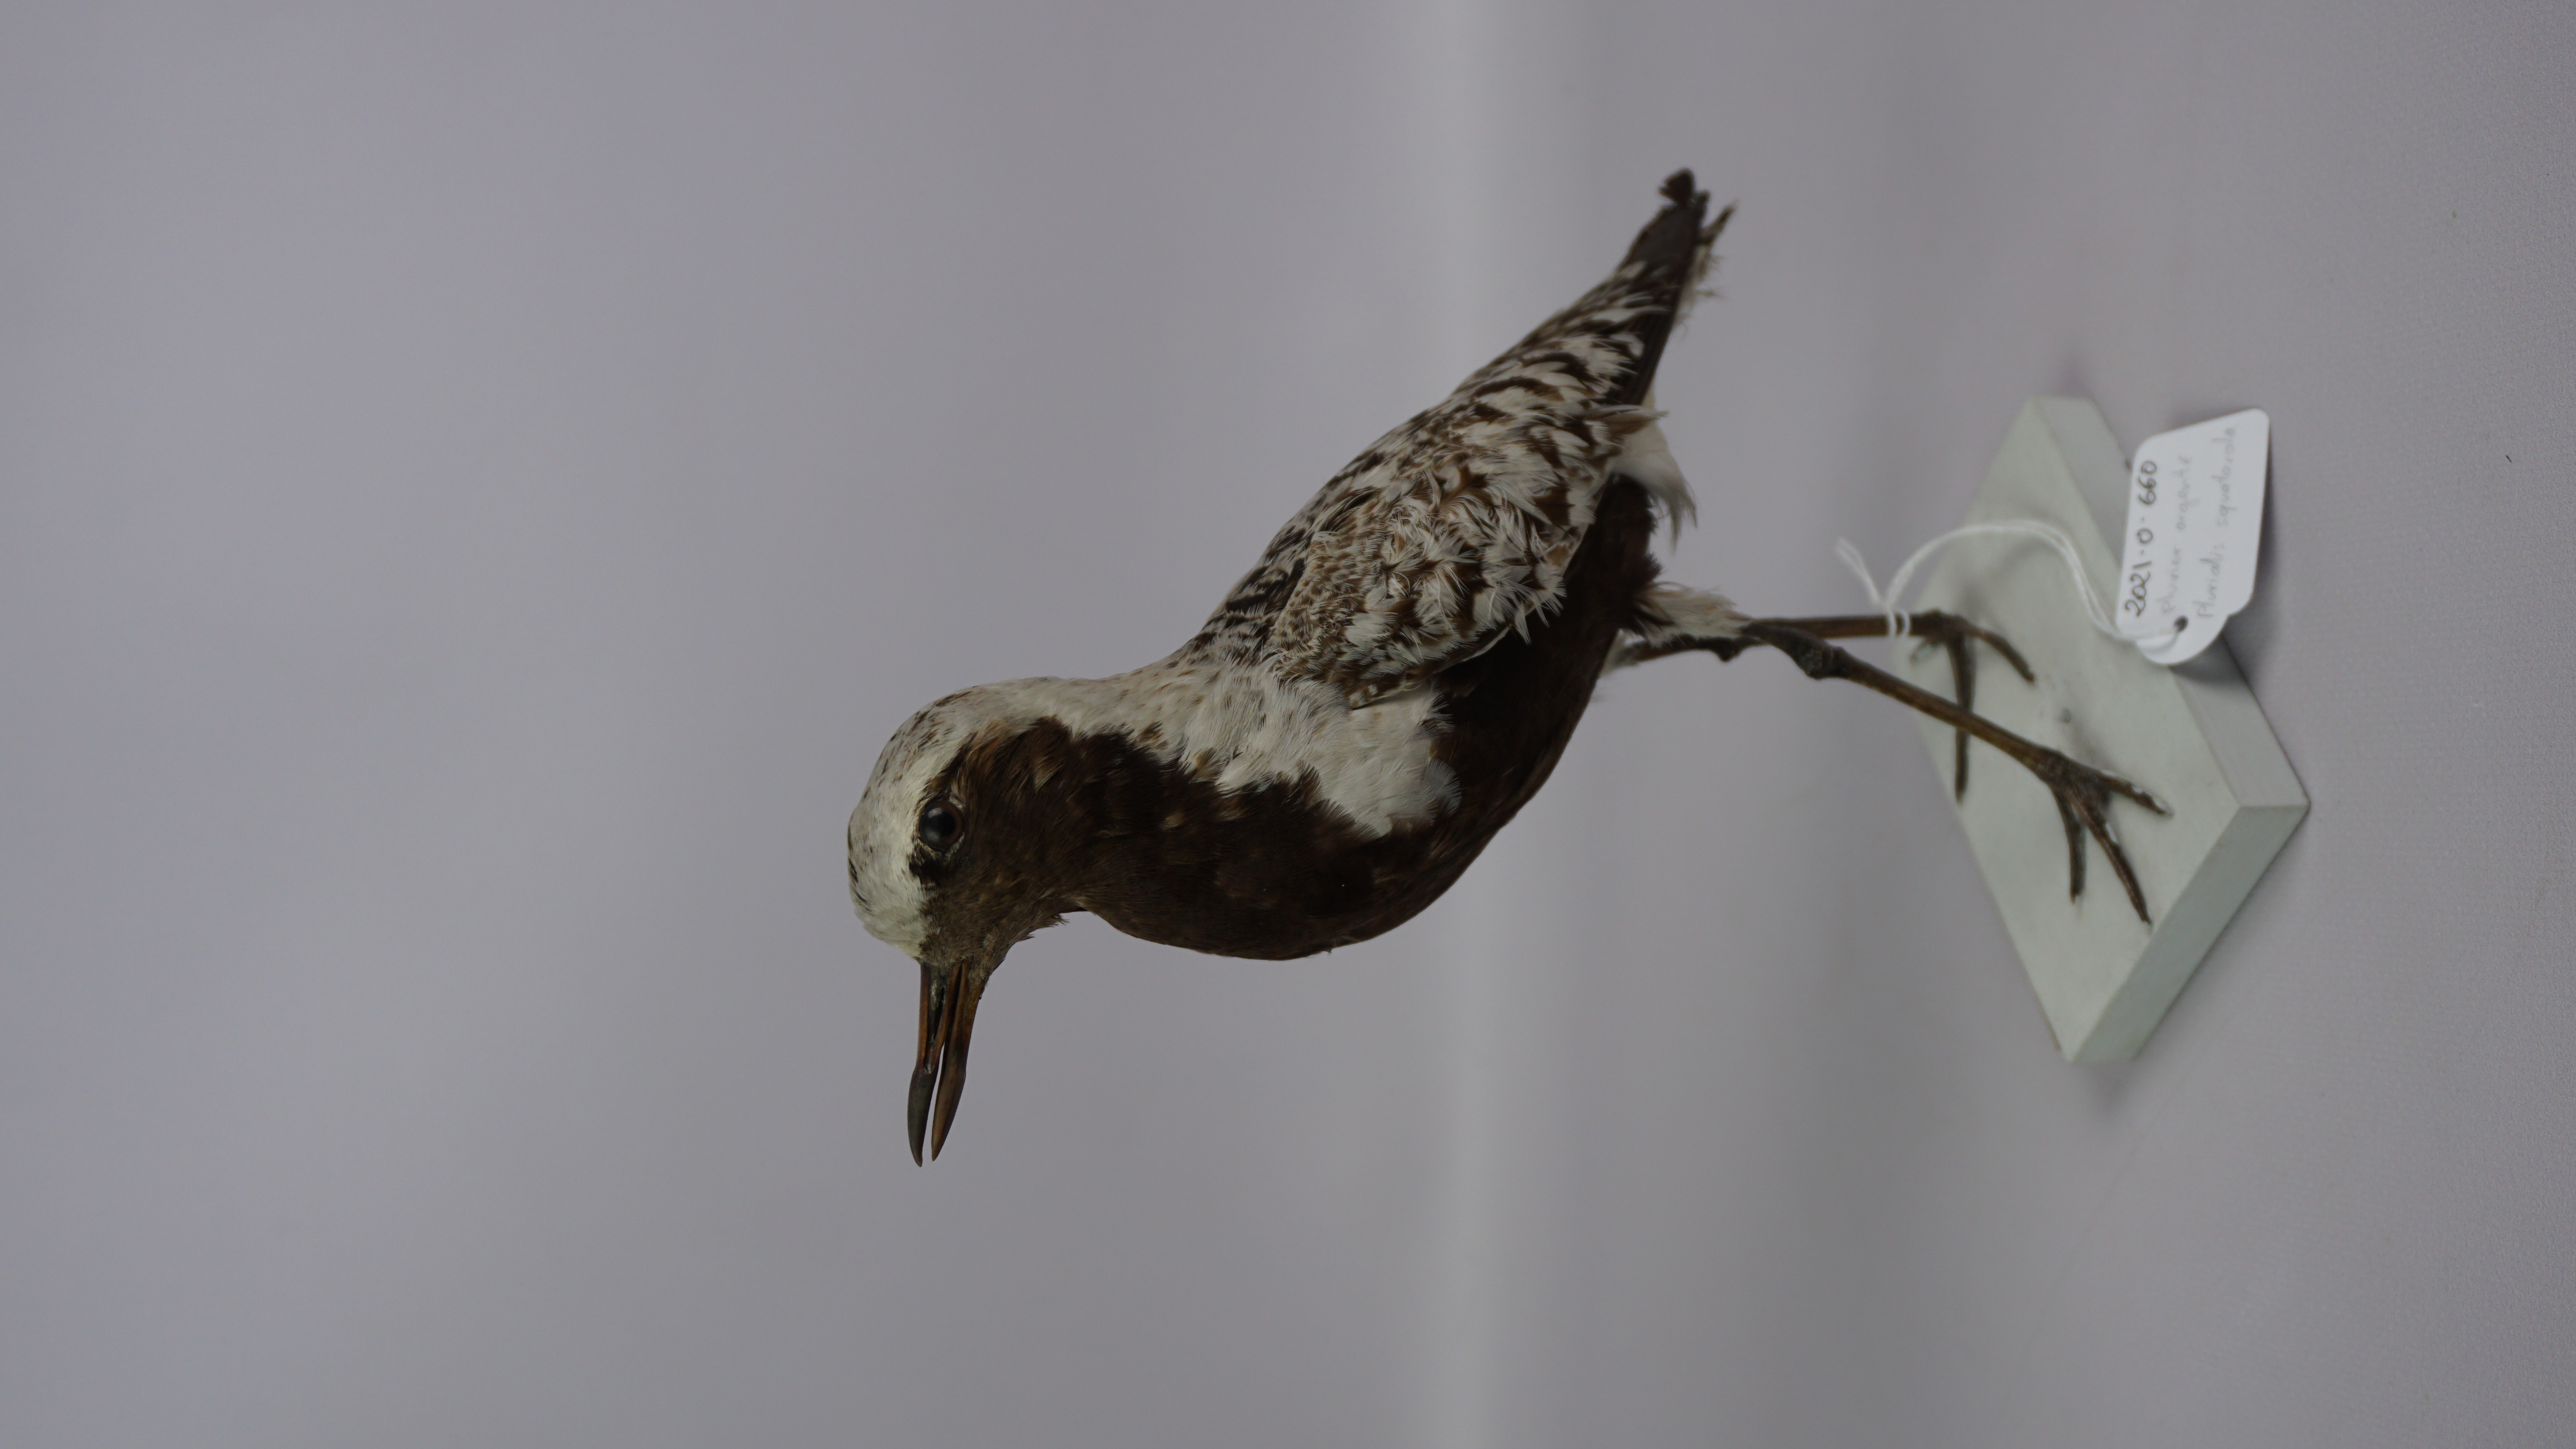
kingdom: Animalia
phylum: Chordata
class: Aves
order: Charadriiformes
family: Charadriidae
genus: Pluvialis
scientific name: Pluvialis squatarola
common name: Grey plover
